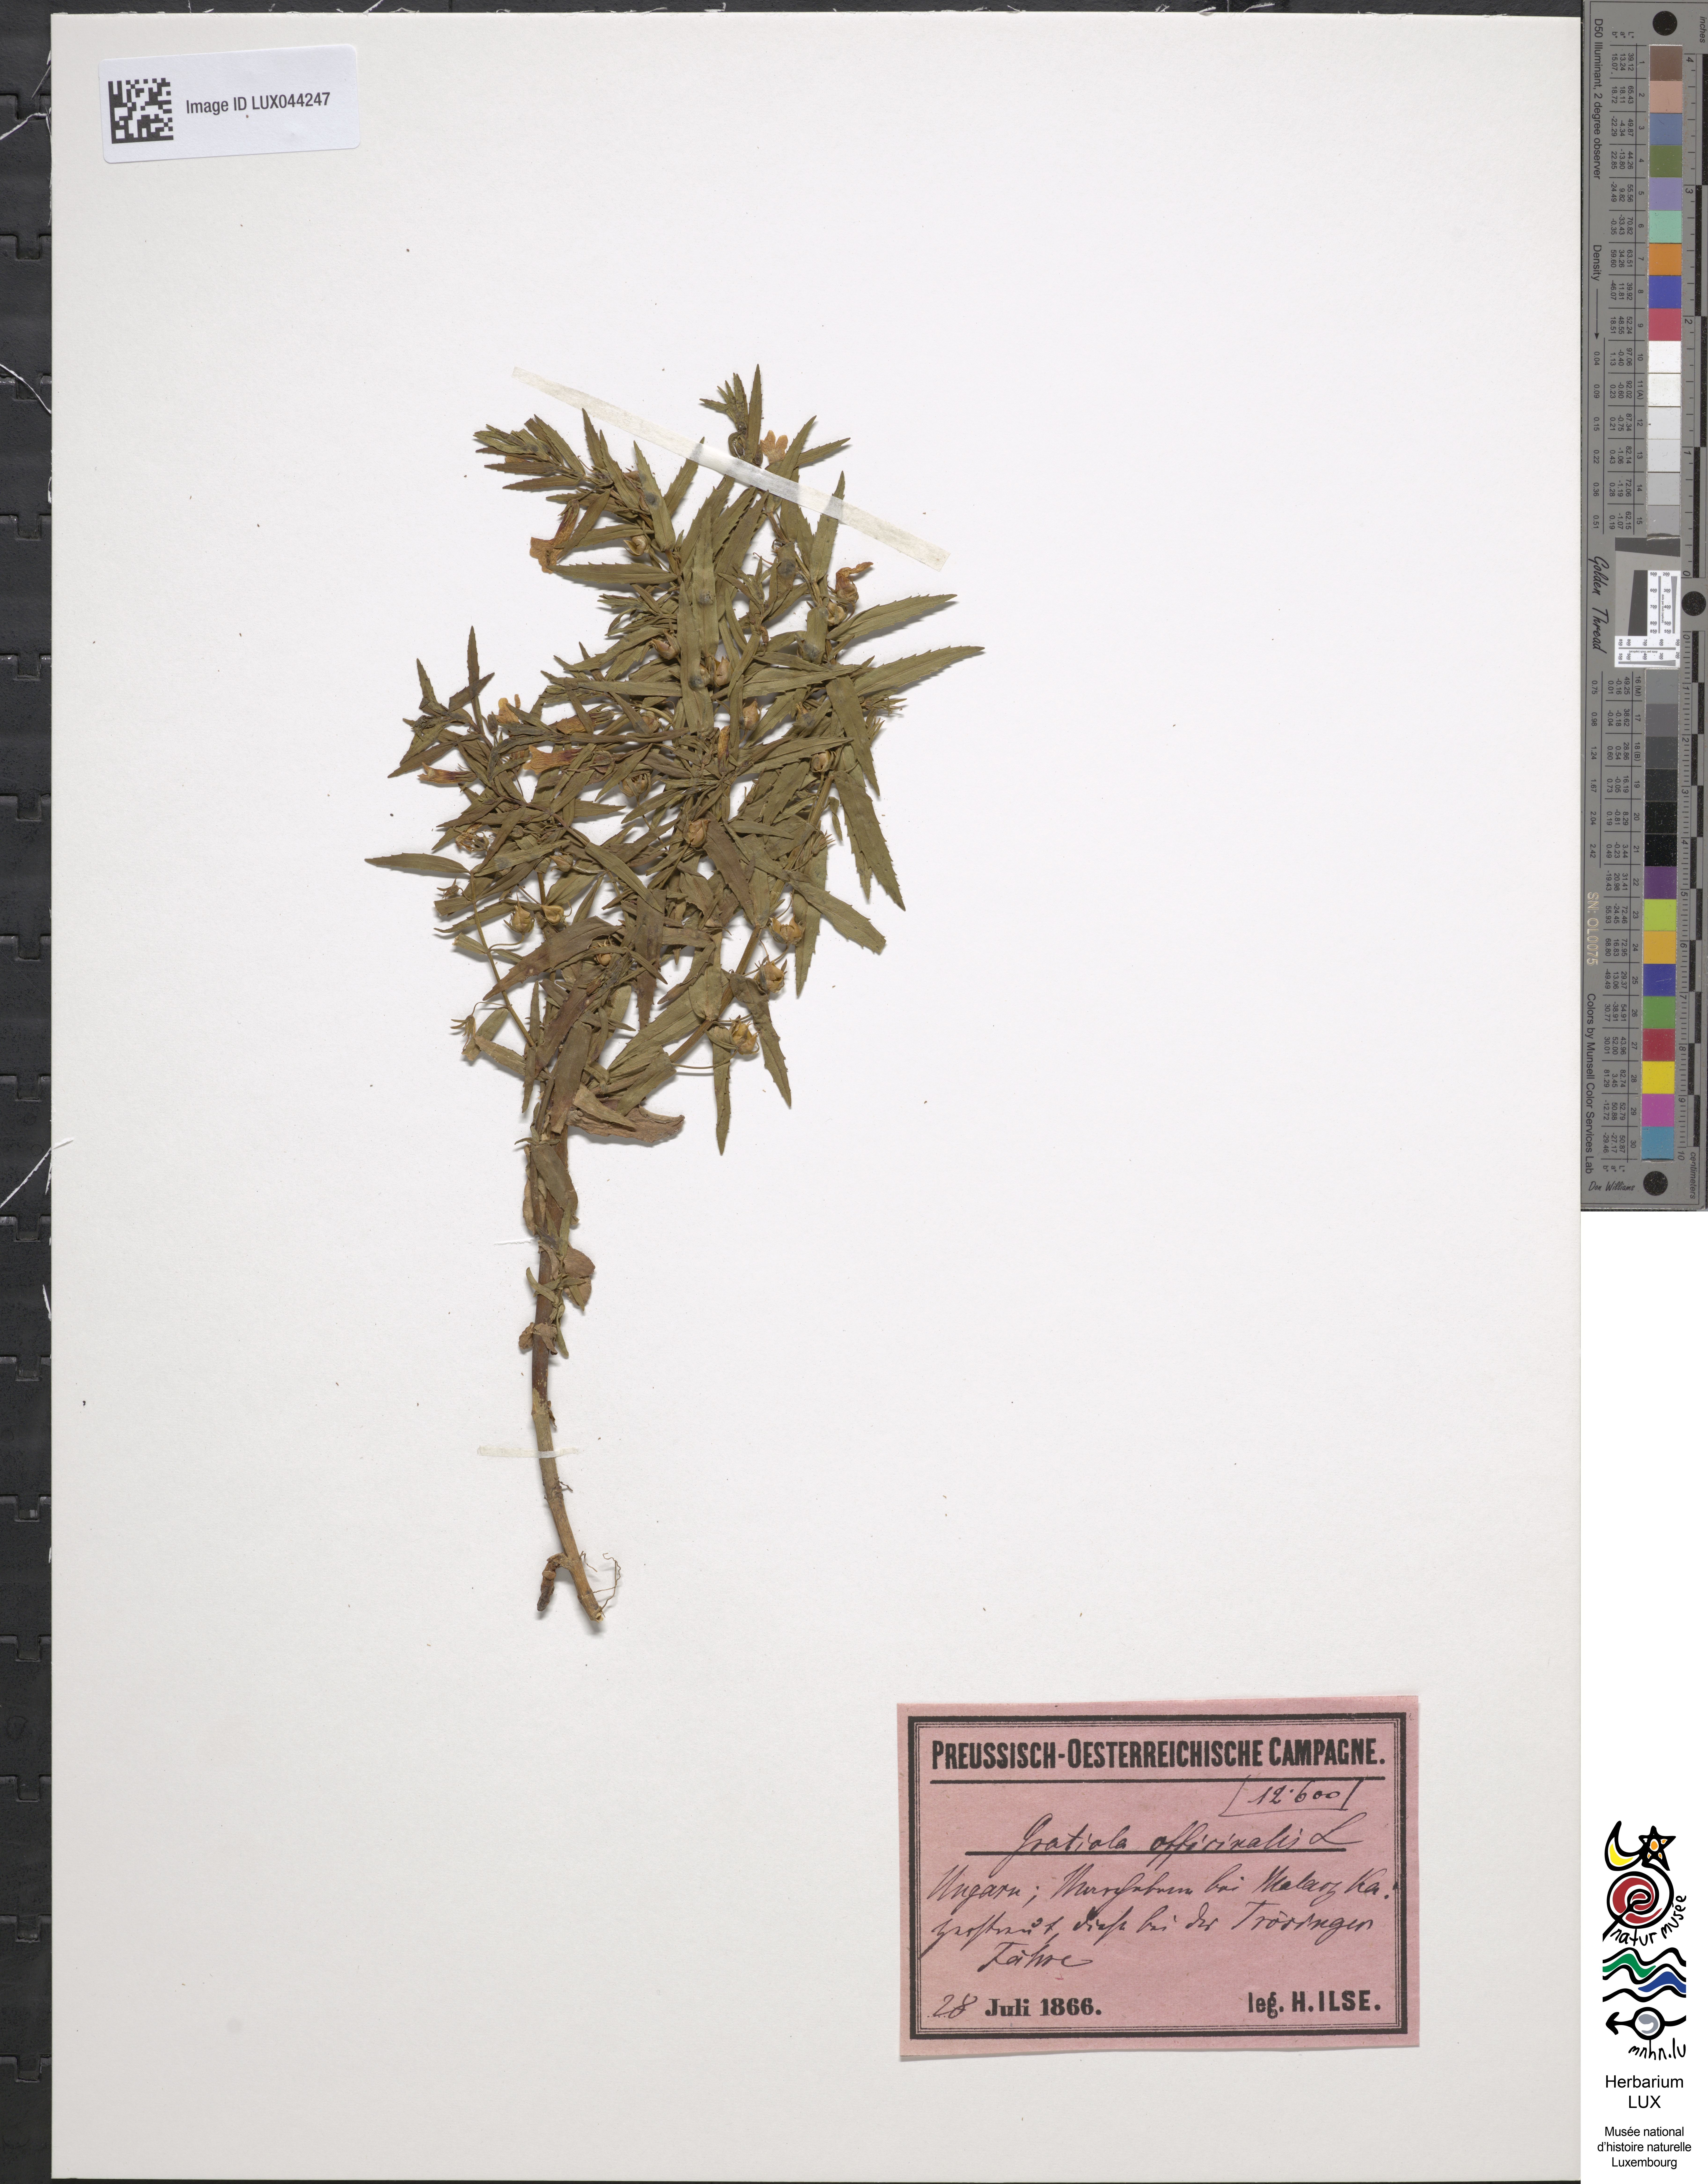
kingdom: Plantae
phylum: Tracheophyta
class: Magnoliopsida
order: Lamiales
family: Plantaginaceae
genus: Gratiola
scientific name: Gratiola officinalis
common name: Gratiola
